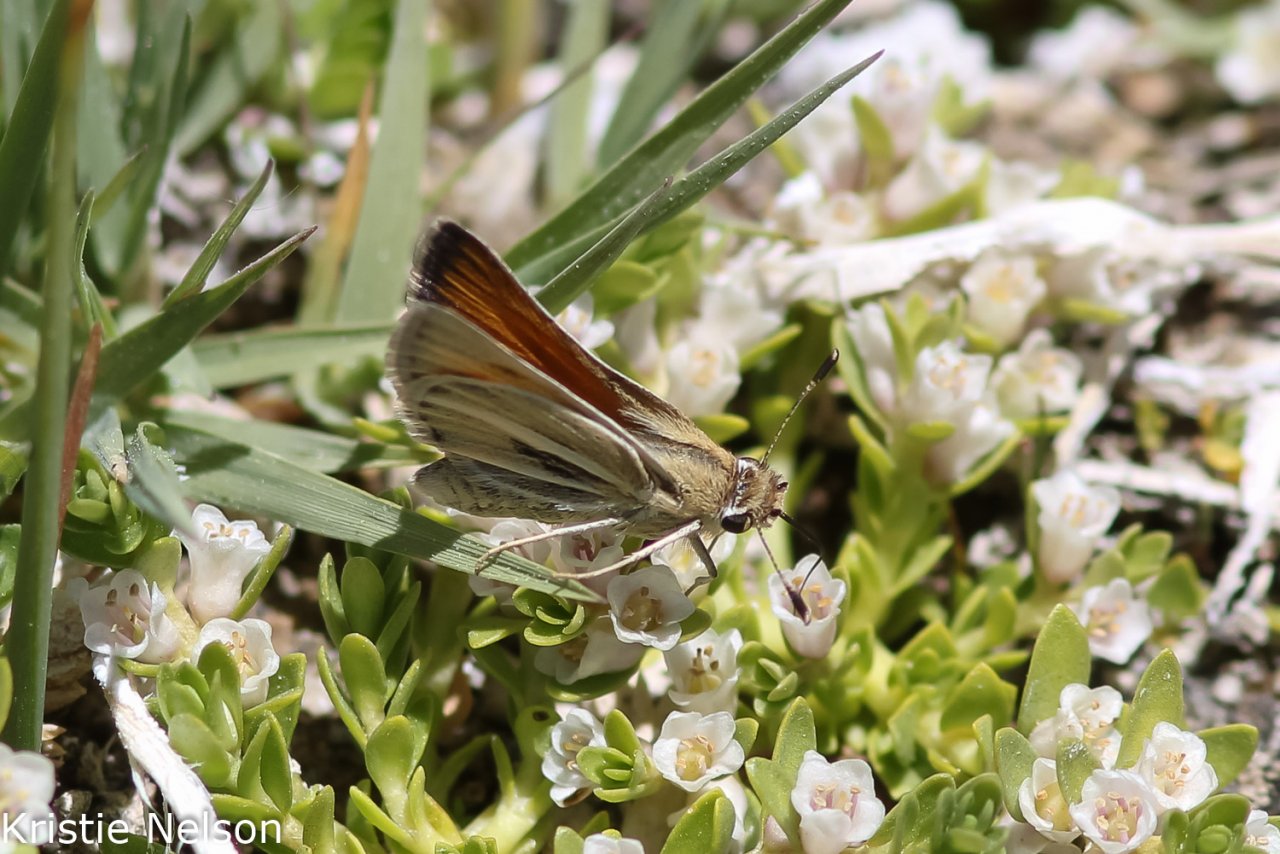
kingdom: Animalia
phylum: Arthropoda
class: Insecta
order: Lepidoptera
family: Hesperiidae
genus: Pseudocopaeodes
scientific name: Pseudocopaeodes eunus
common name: Alkali Skipper
